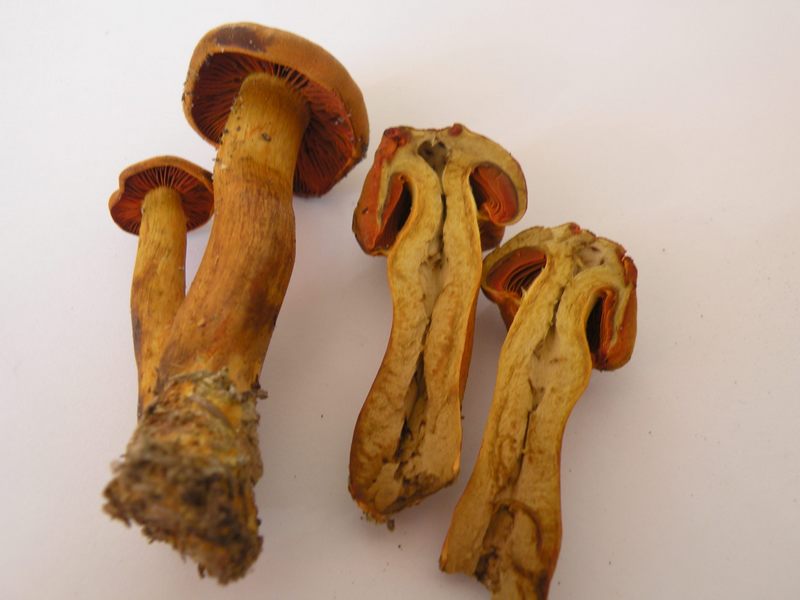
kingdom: Fungi
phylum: Basidiomycota
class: Agaricomycetes
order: Agaricales
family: Cortinariaceae
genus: Cortinarius
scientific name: Cortinarius malicorius
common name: grønkødet slørhat
